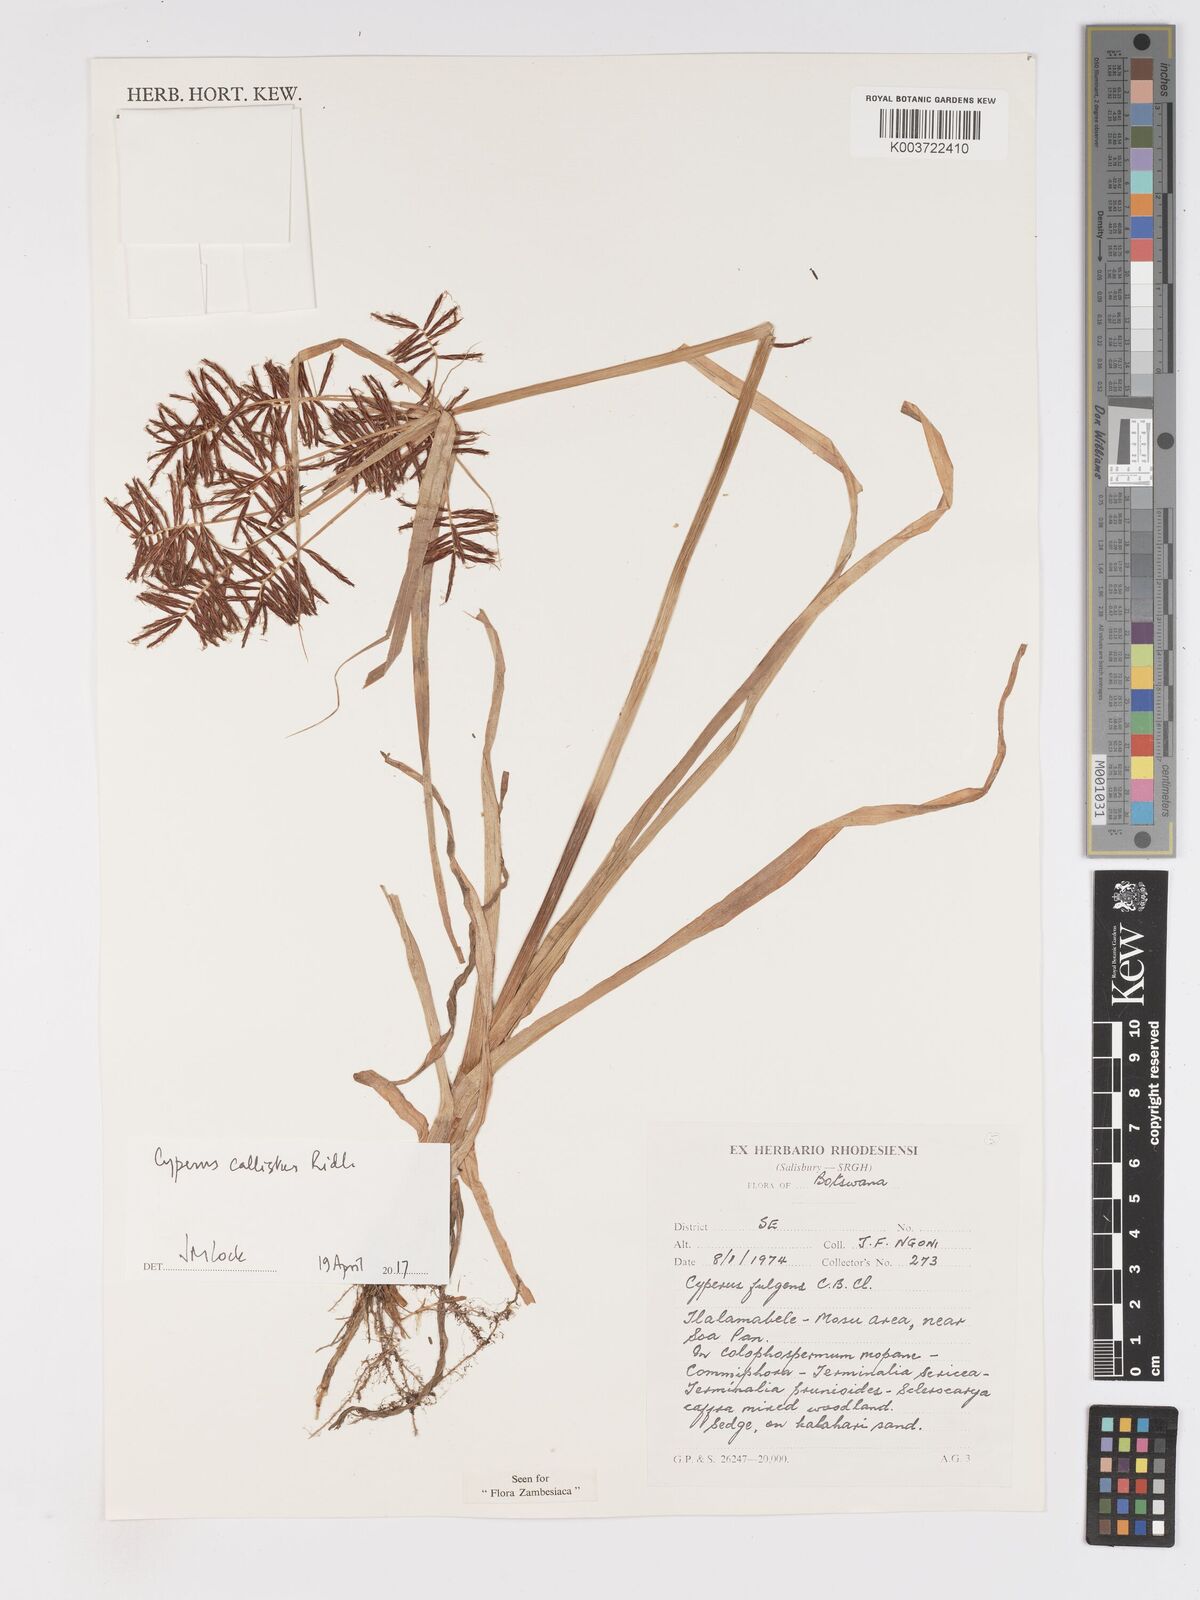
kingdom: Plantae
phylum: Tracheophyta
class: Liliopsida
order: Poales
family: Cyperaceae
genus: Cyperus
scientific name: Cyperus callistus
